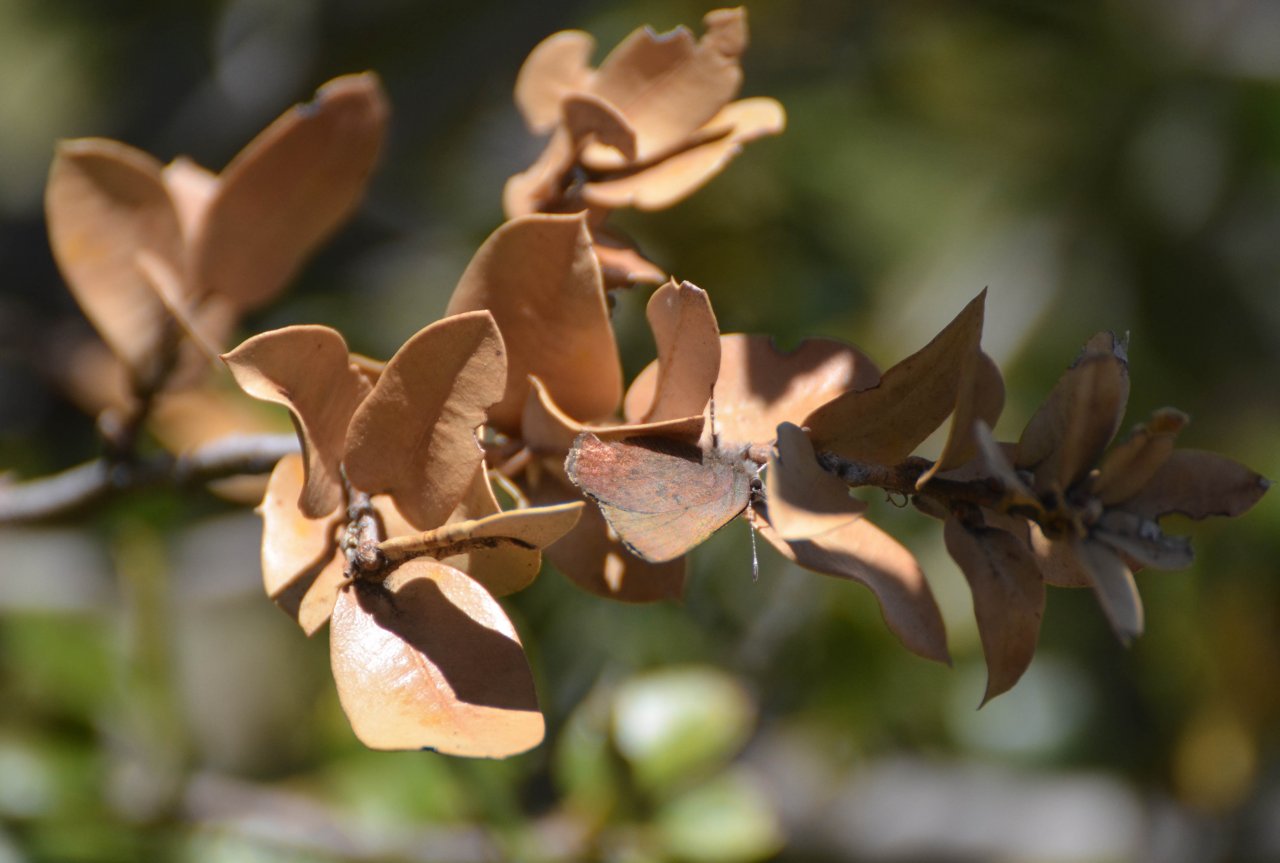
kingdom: Animalia
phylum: Arthropoda
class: Insecta
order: Lepidoptera
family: Lycaenidae
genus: Incisalia
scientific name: Incisalia irioides
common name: Brown Elfin
